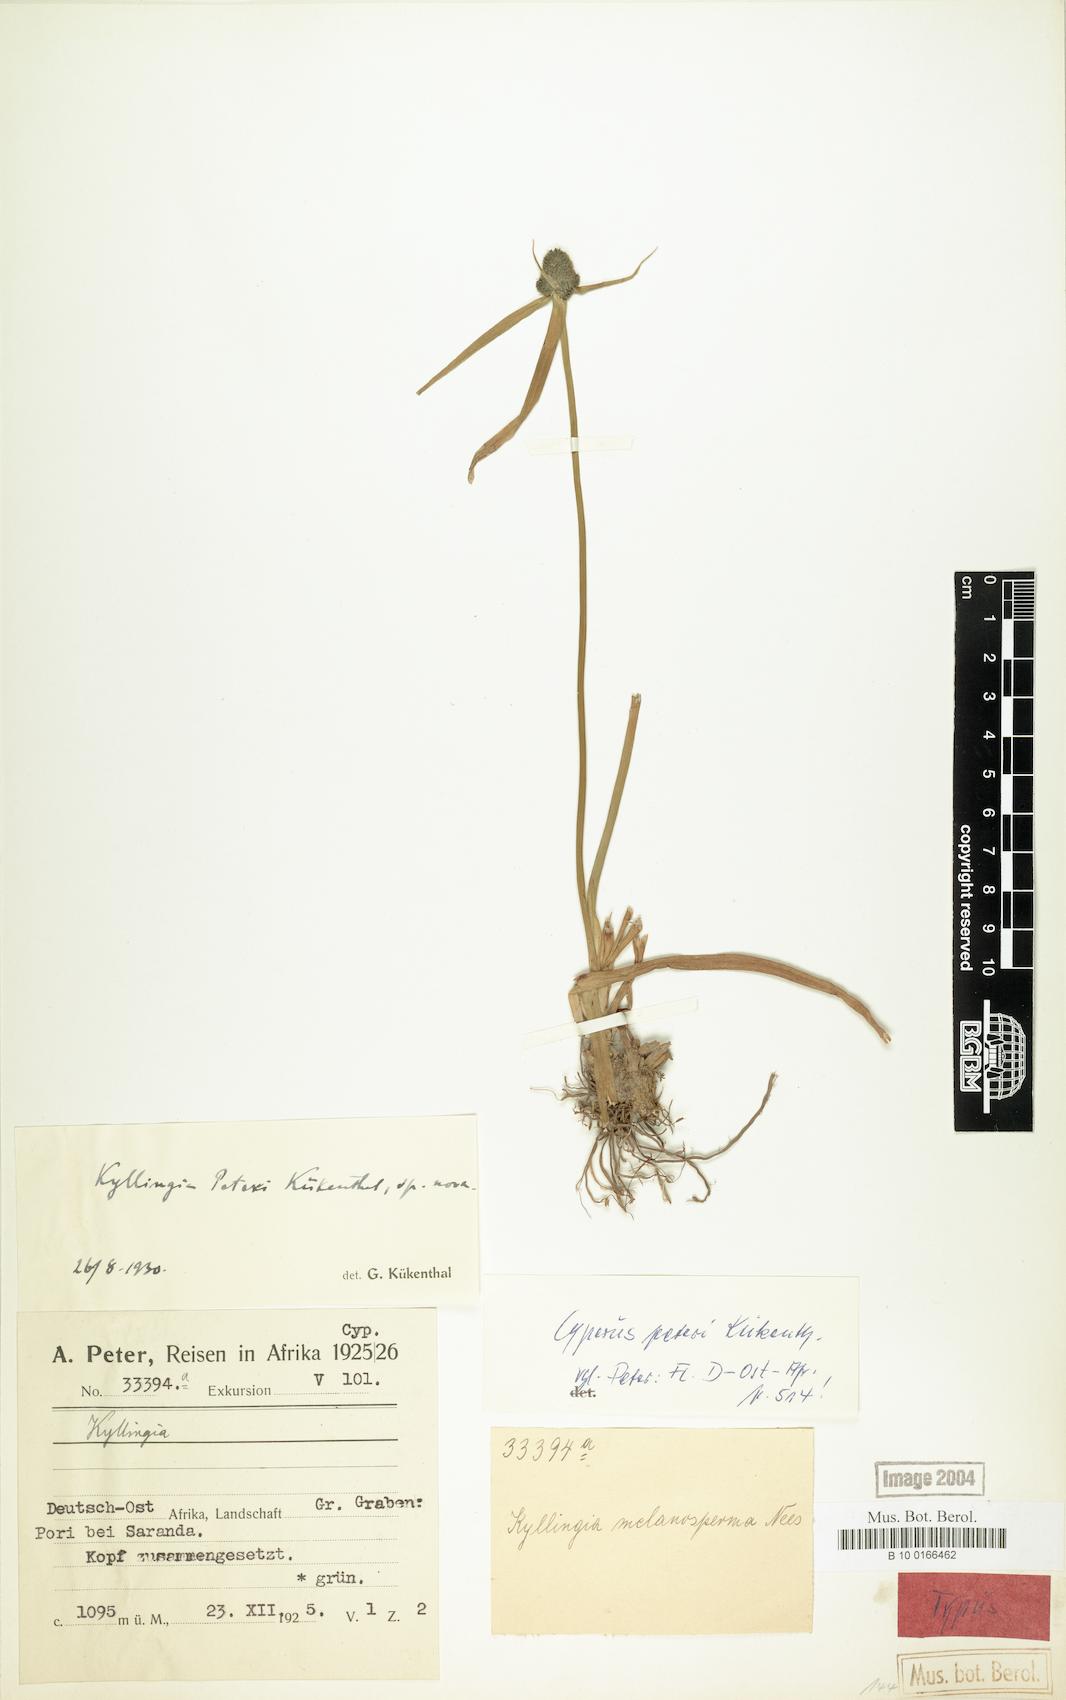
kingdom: Plantae
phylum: Tracheophyta
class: Liliopsida
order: Poales
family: Cyperaceae
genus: Cyperus
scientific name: Cyperus peteri
